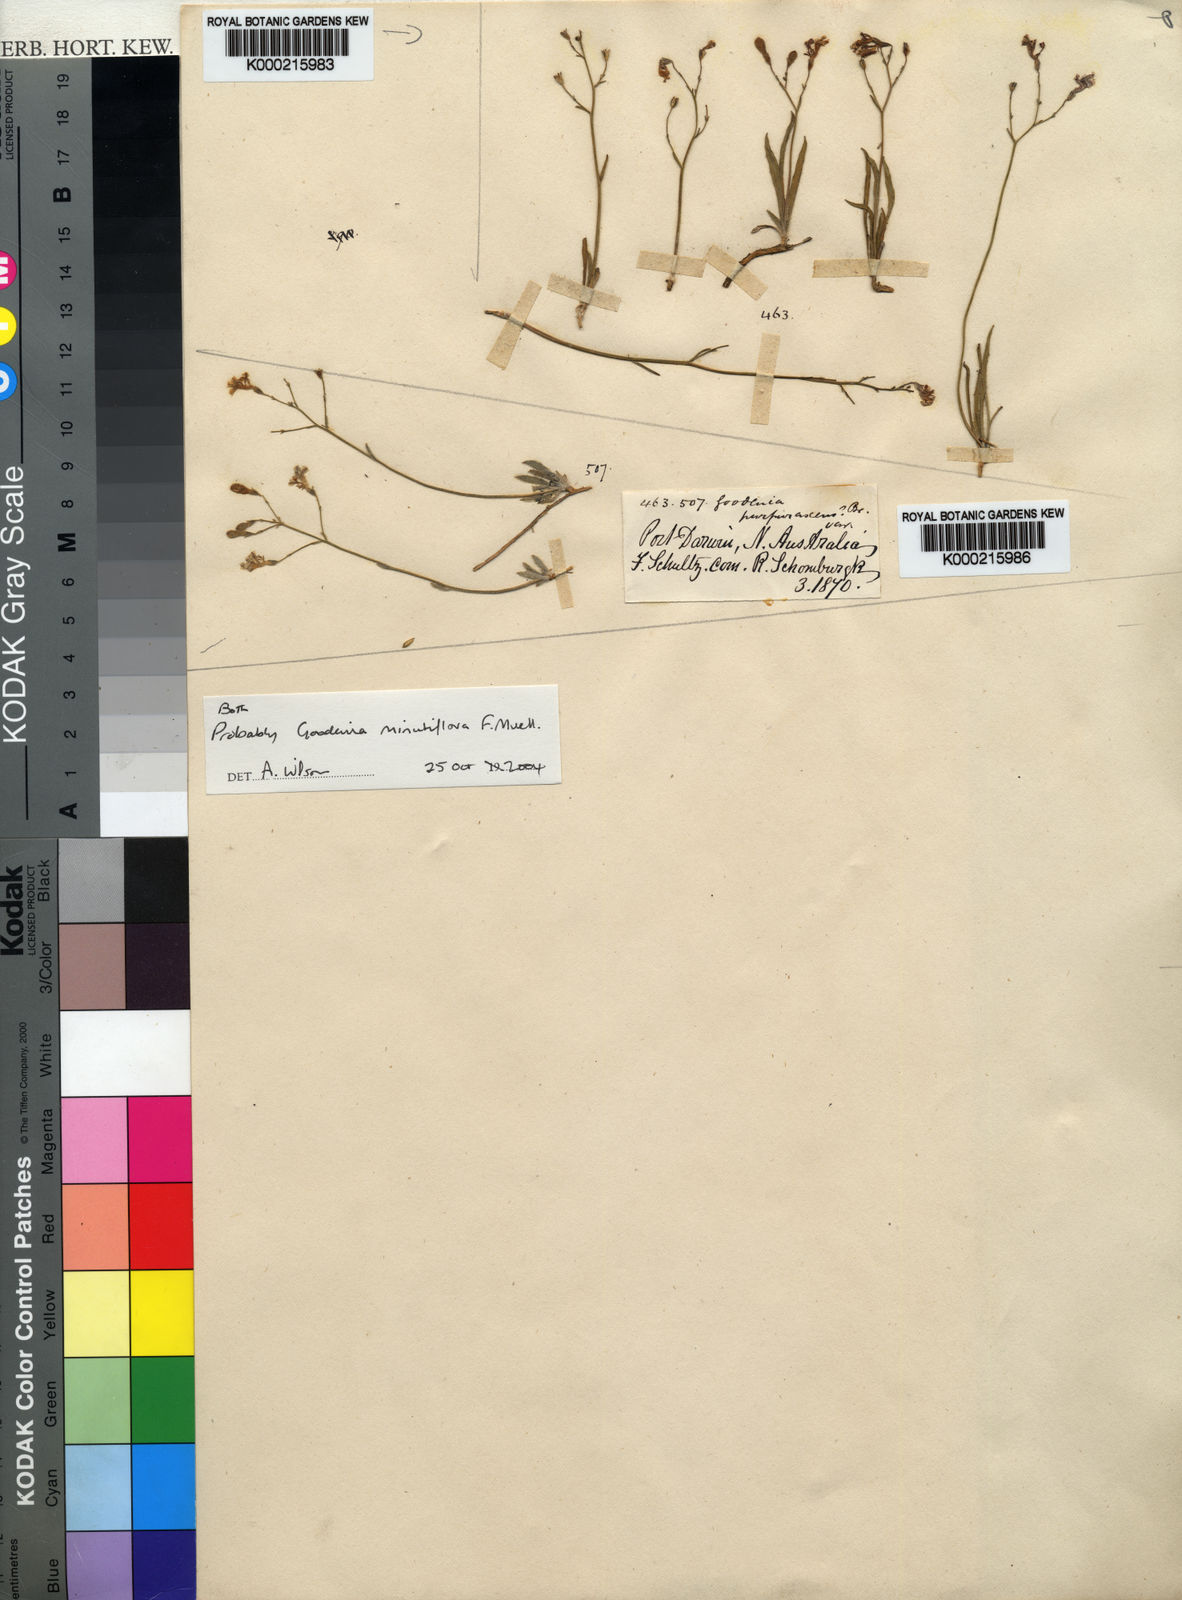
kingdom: Plantae
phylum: Tracheophyta
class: Magnoliopsida
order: Asterales
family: Goodeniaceae
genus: Goodenia
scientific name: Goodenia minutiflora
